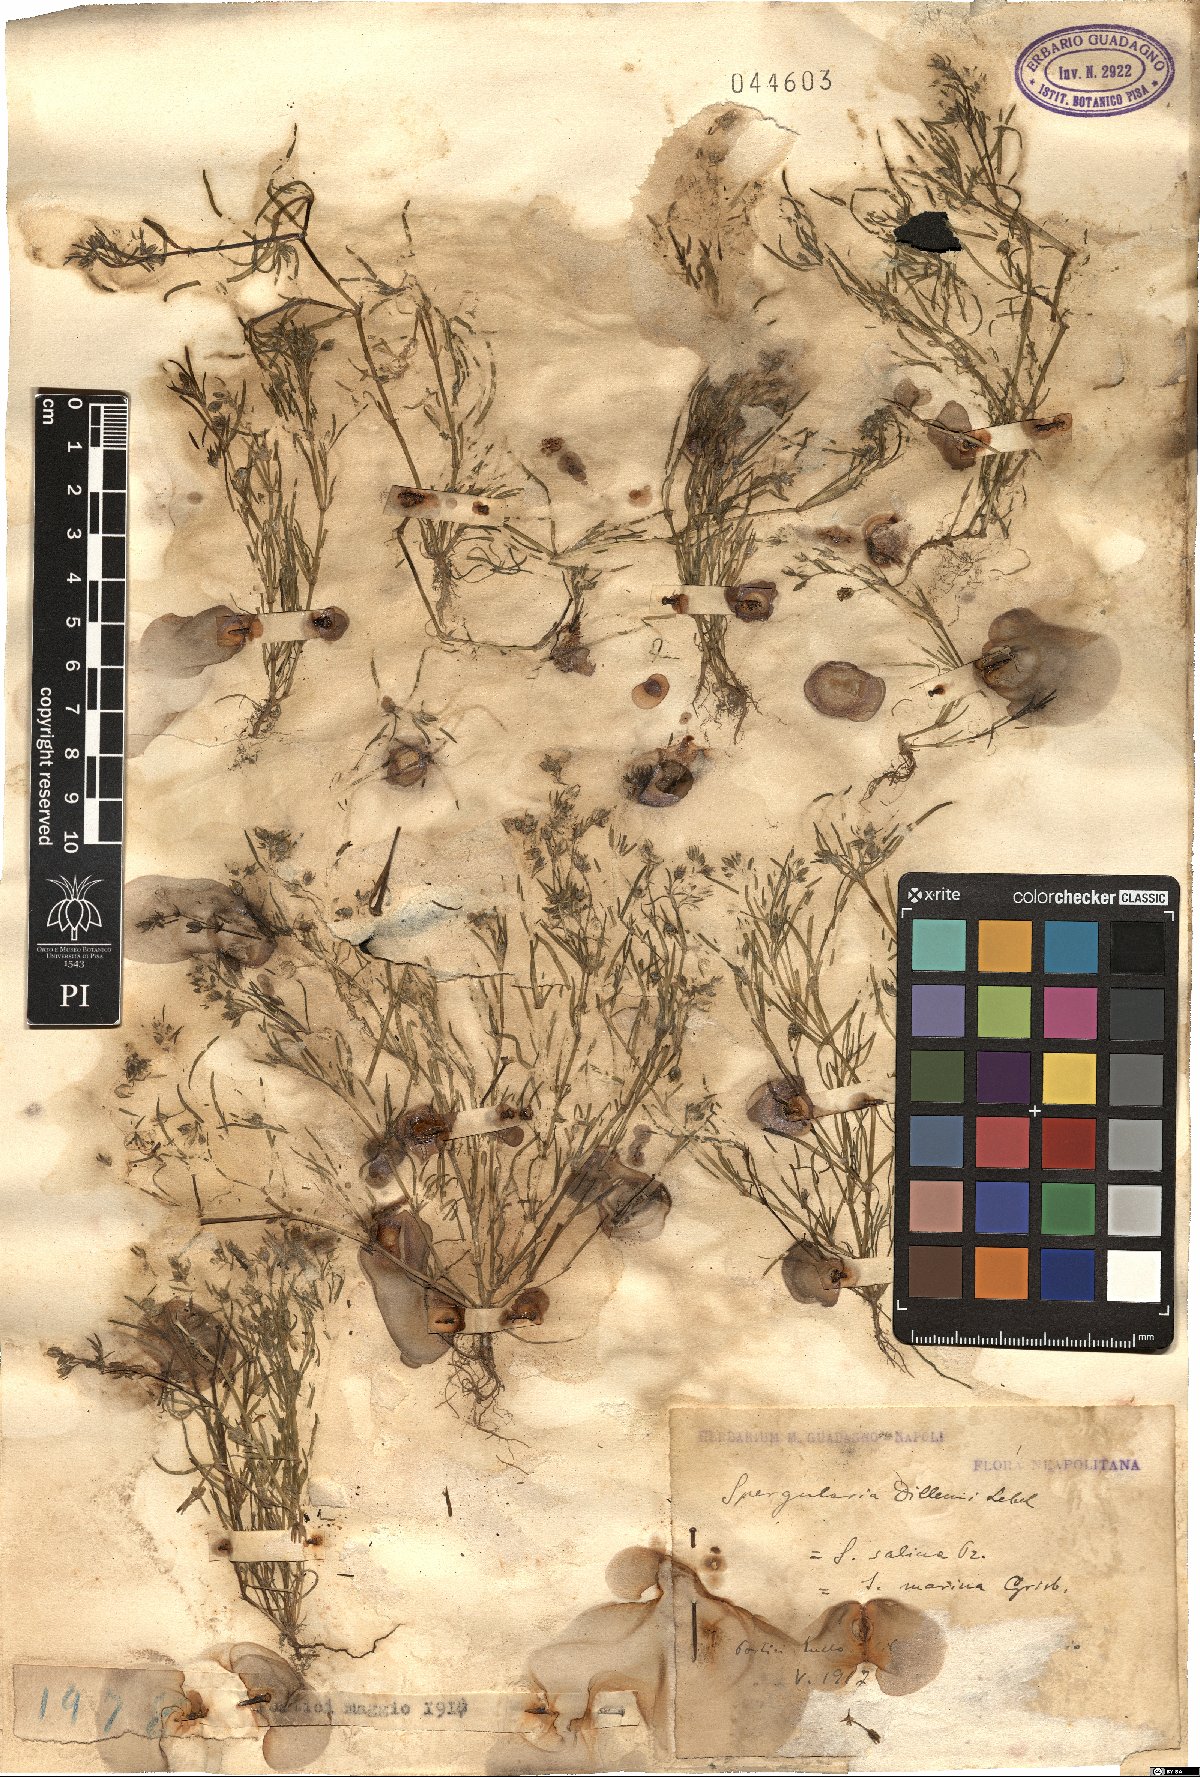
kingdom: Plantae
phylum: Tracheophyta
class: Magnoliopsida
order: Caryophyllales
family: Caryophyllaceae
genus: Spergularia
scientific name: Spergularia marina
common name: Lesser sea-spurrey
